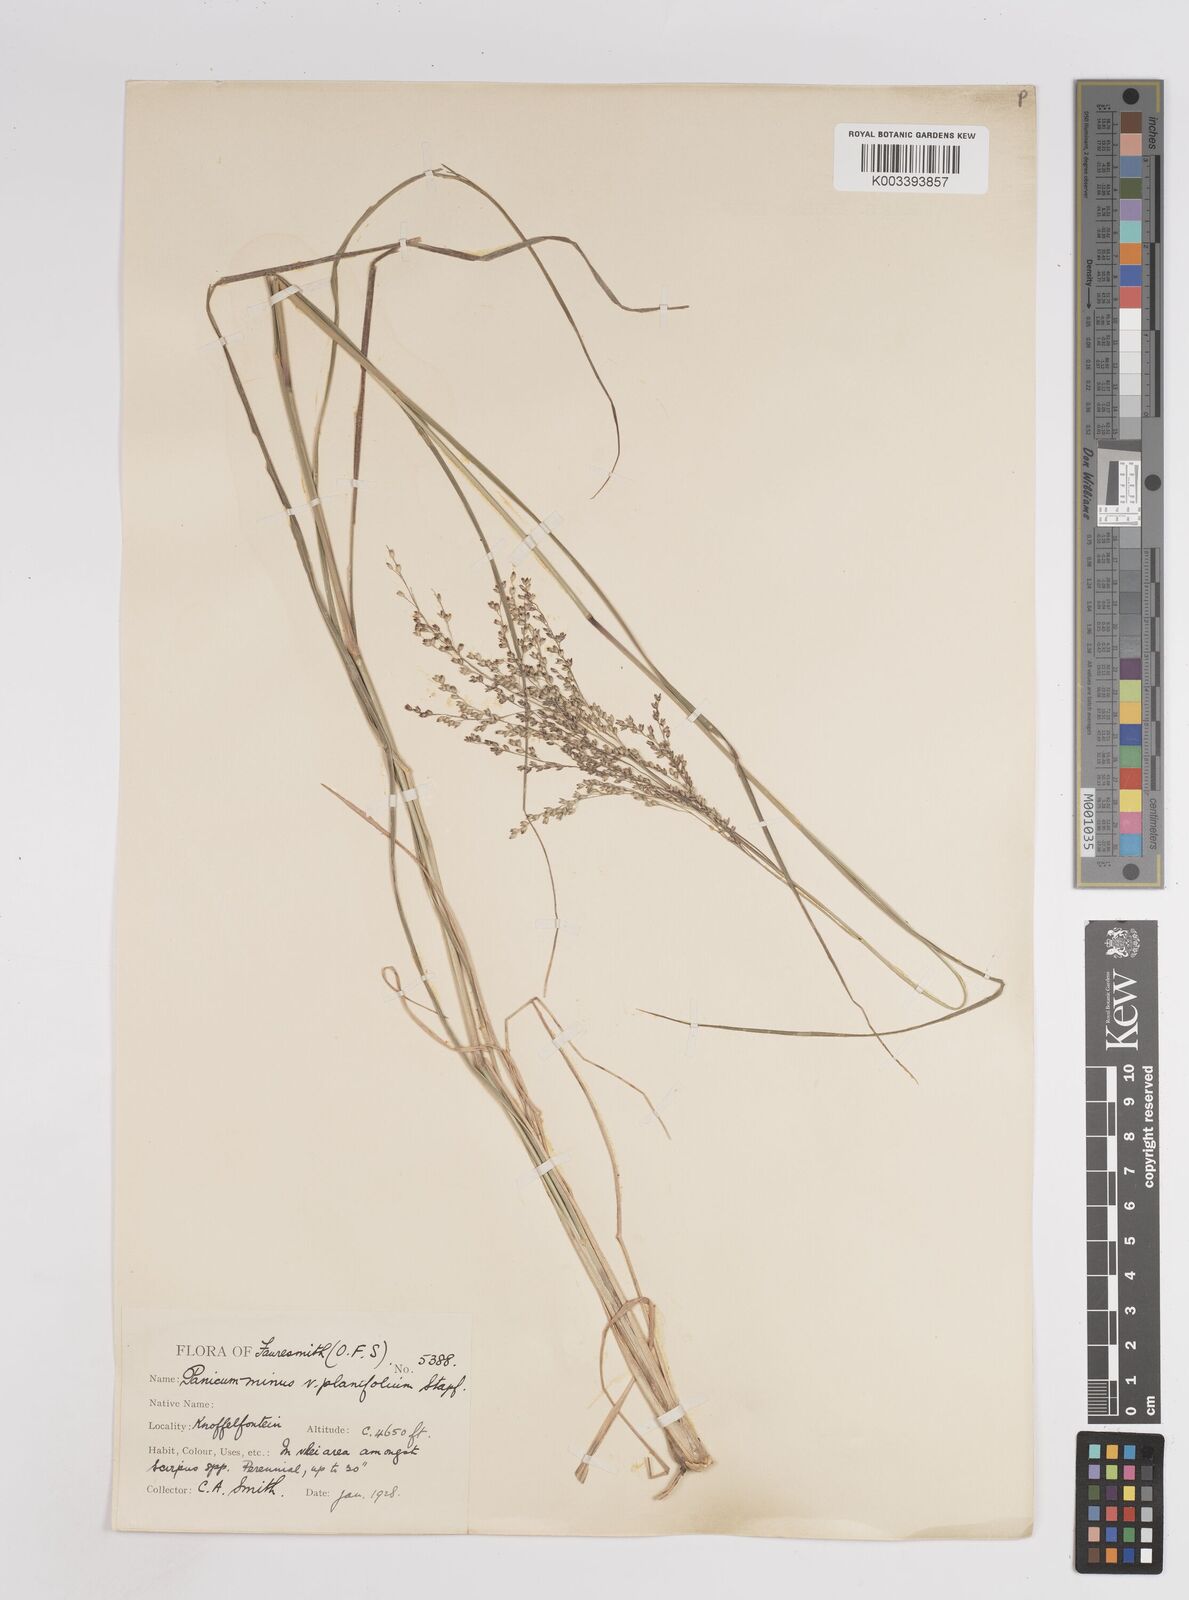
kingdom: Plantae
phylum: Tracheophyta
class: Liliopsida
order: Poales
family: Poaceae
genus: Panicum
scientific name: Panicum stapfianum
